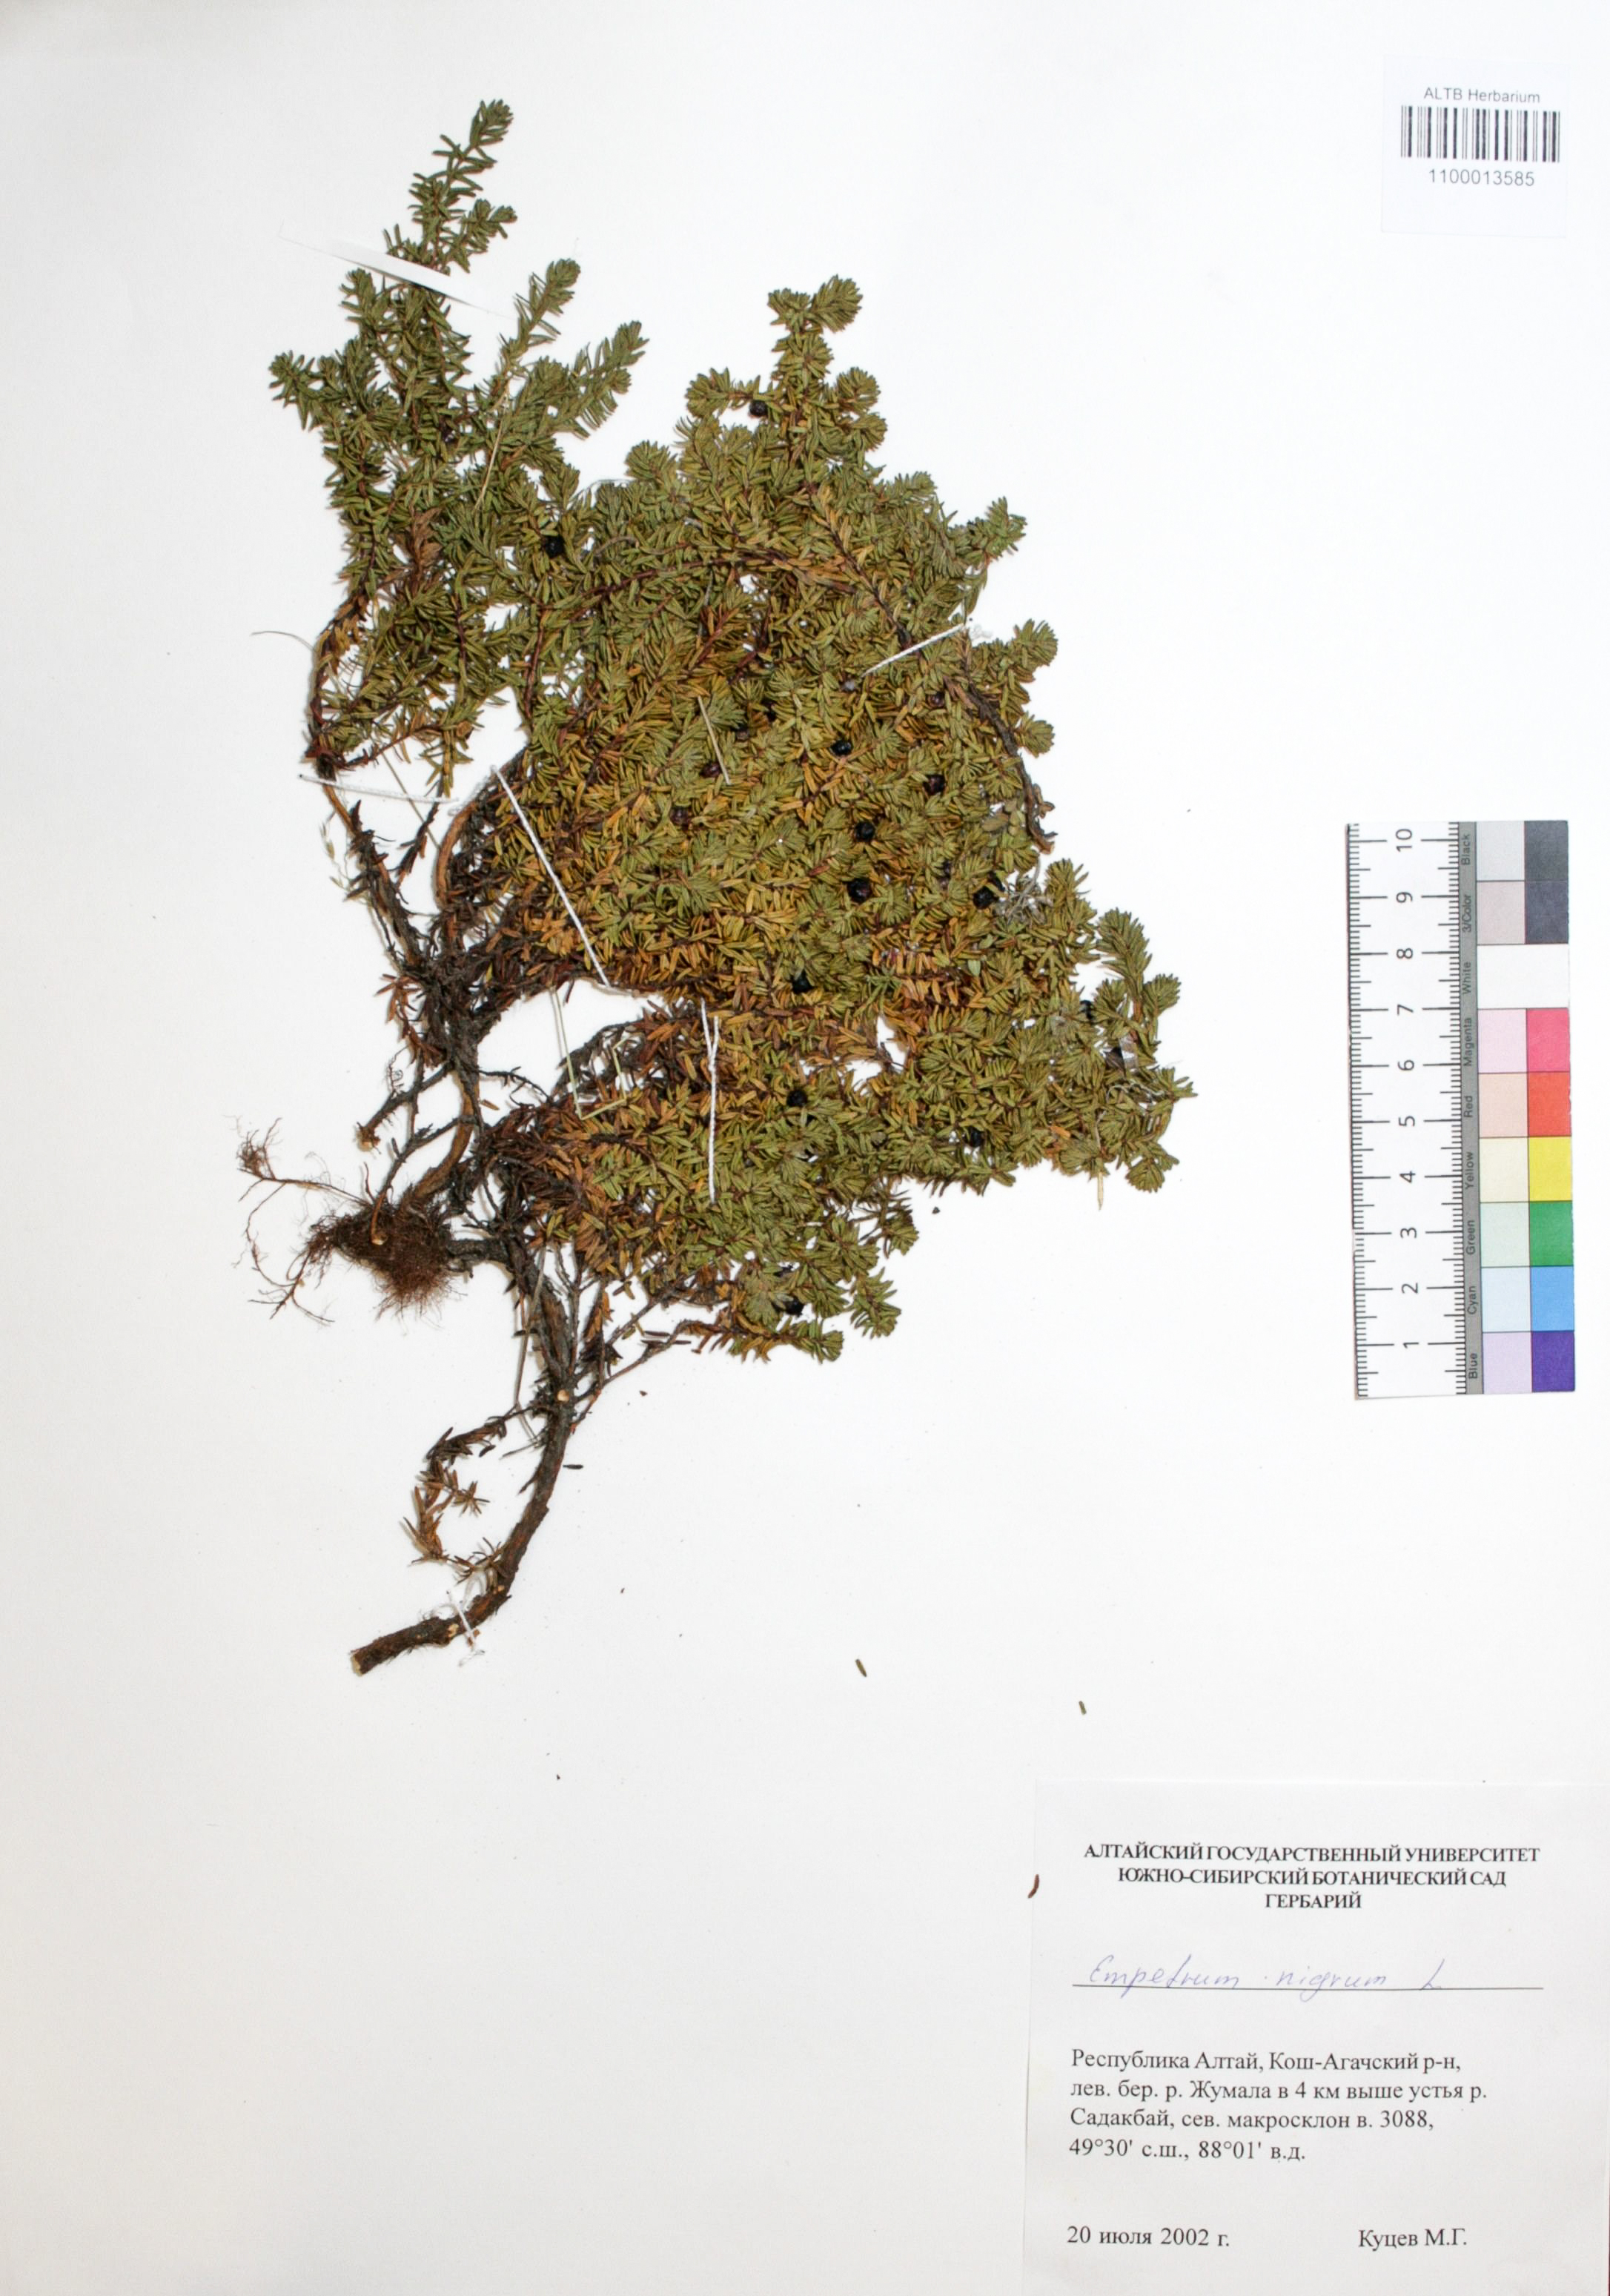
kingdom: Plantae
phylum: Tracheophyta
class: Magnoliopsida
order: Ericales
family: Ericaceae
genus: Empetrum
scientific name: Empetrum nigrum
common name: Black crowberry
